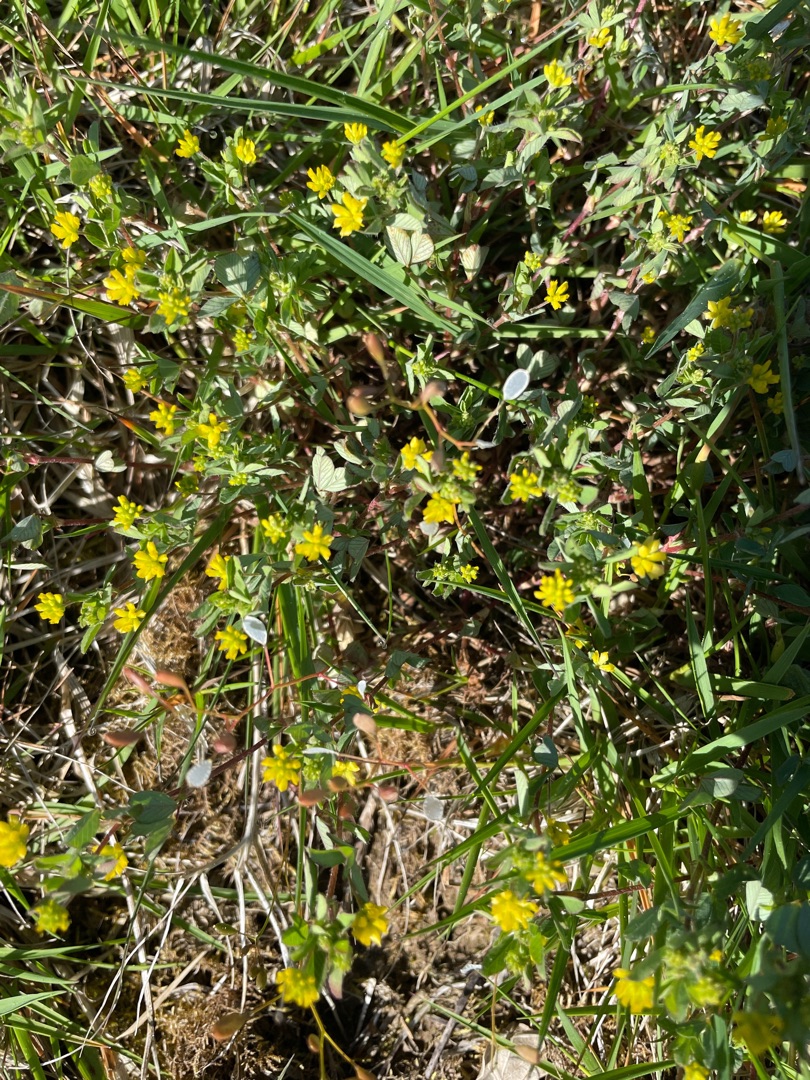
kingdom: Plantae
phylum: Tracheophyta
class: Magnoliopsida
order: Fabales
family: Fabaceae
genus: Trifolium
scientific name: Trifolium dubium
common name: Fin kløver
